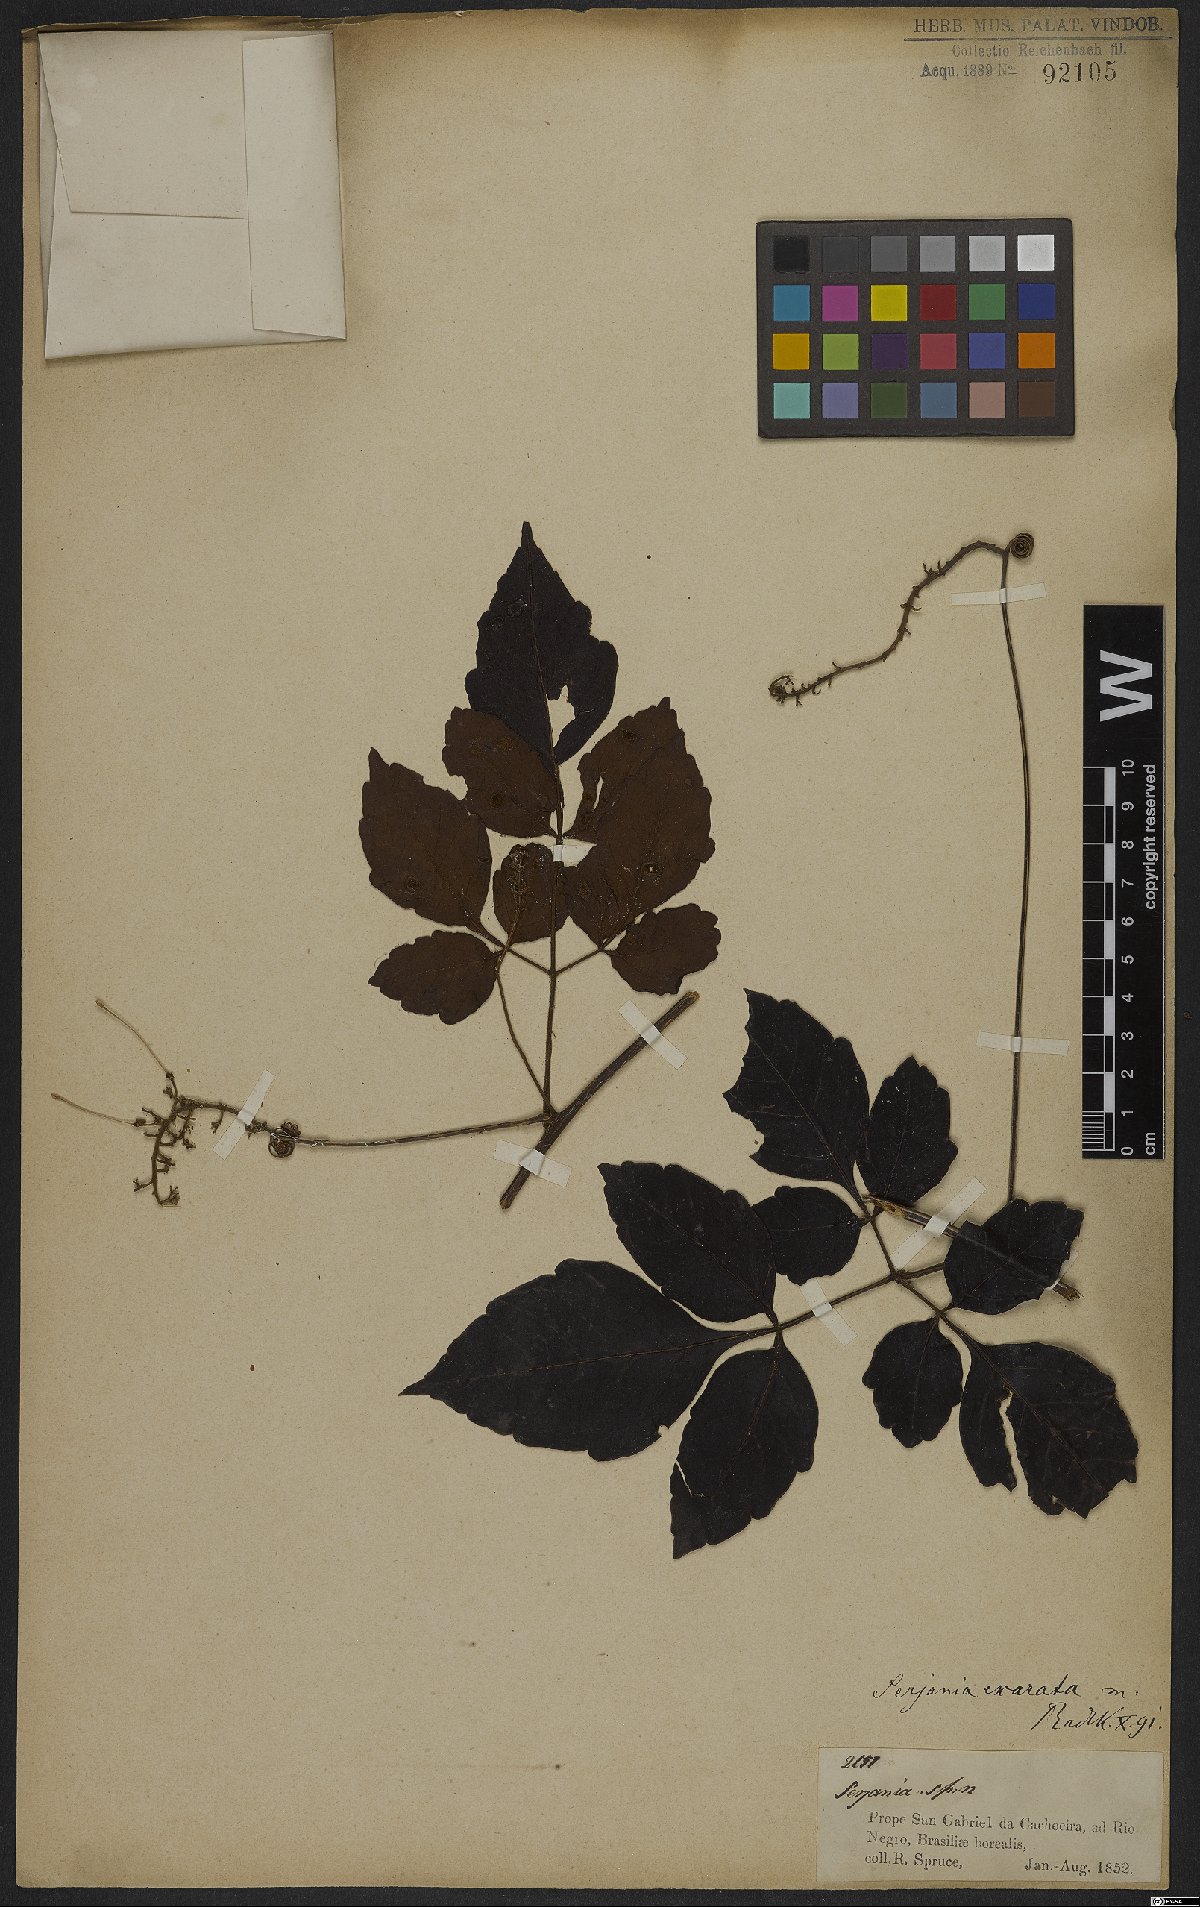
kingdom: Plantae
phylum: Tracheophyta
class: Magnoliopsida
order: Sapindales
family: Sapindaceae
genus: Serjania
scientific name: Serjania membranacea
